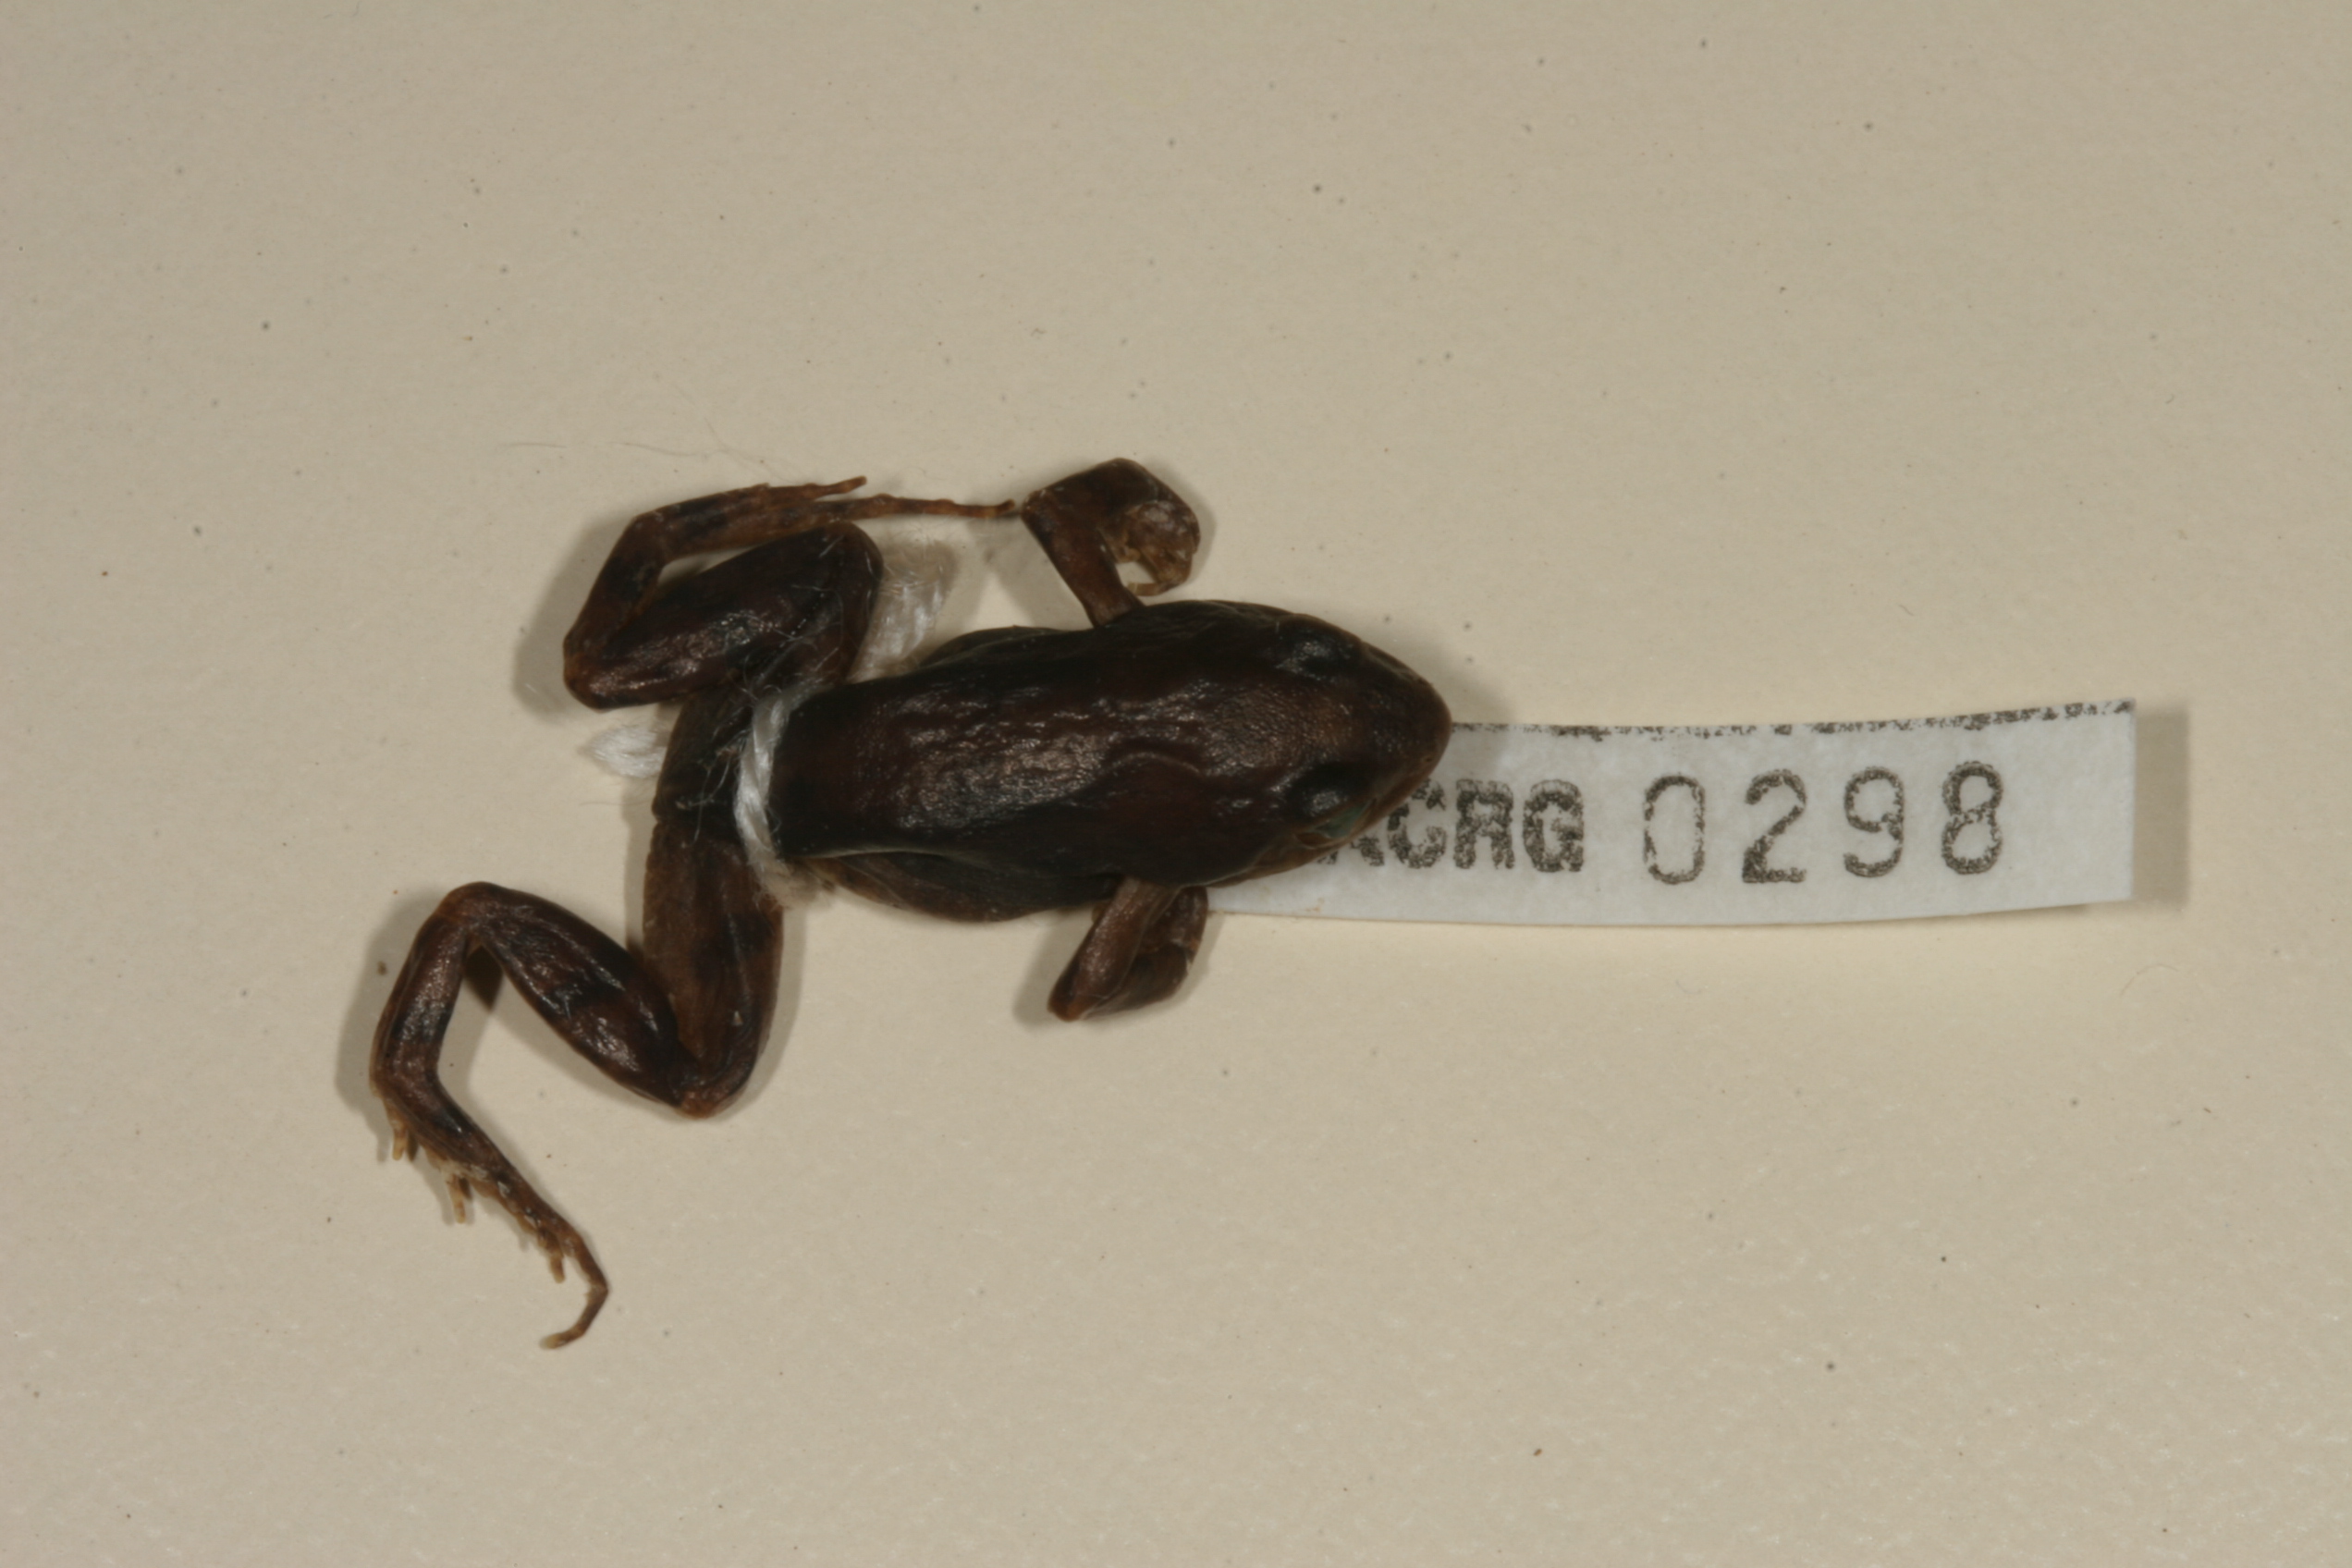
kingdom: Animalia
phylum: Chordata
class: Amphibia
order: Anura
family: Pyxicephalidae
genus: Cacosternum
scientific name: Cacosternum nanum
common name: Bronze dainty frog
